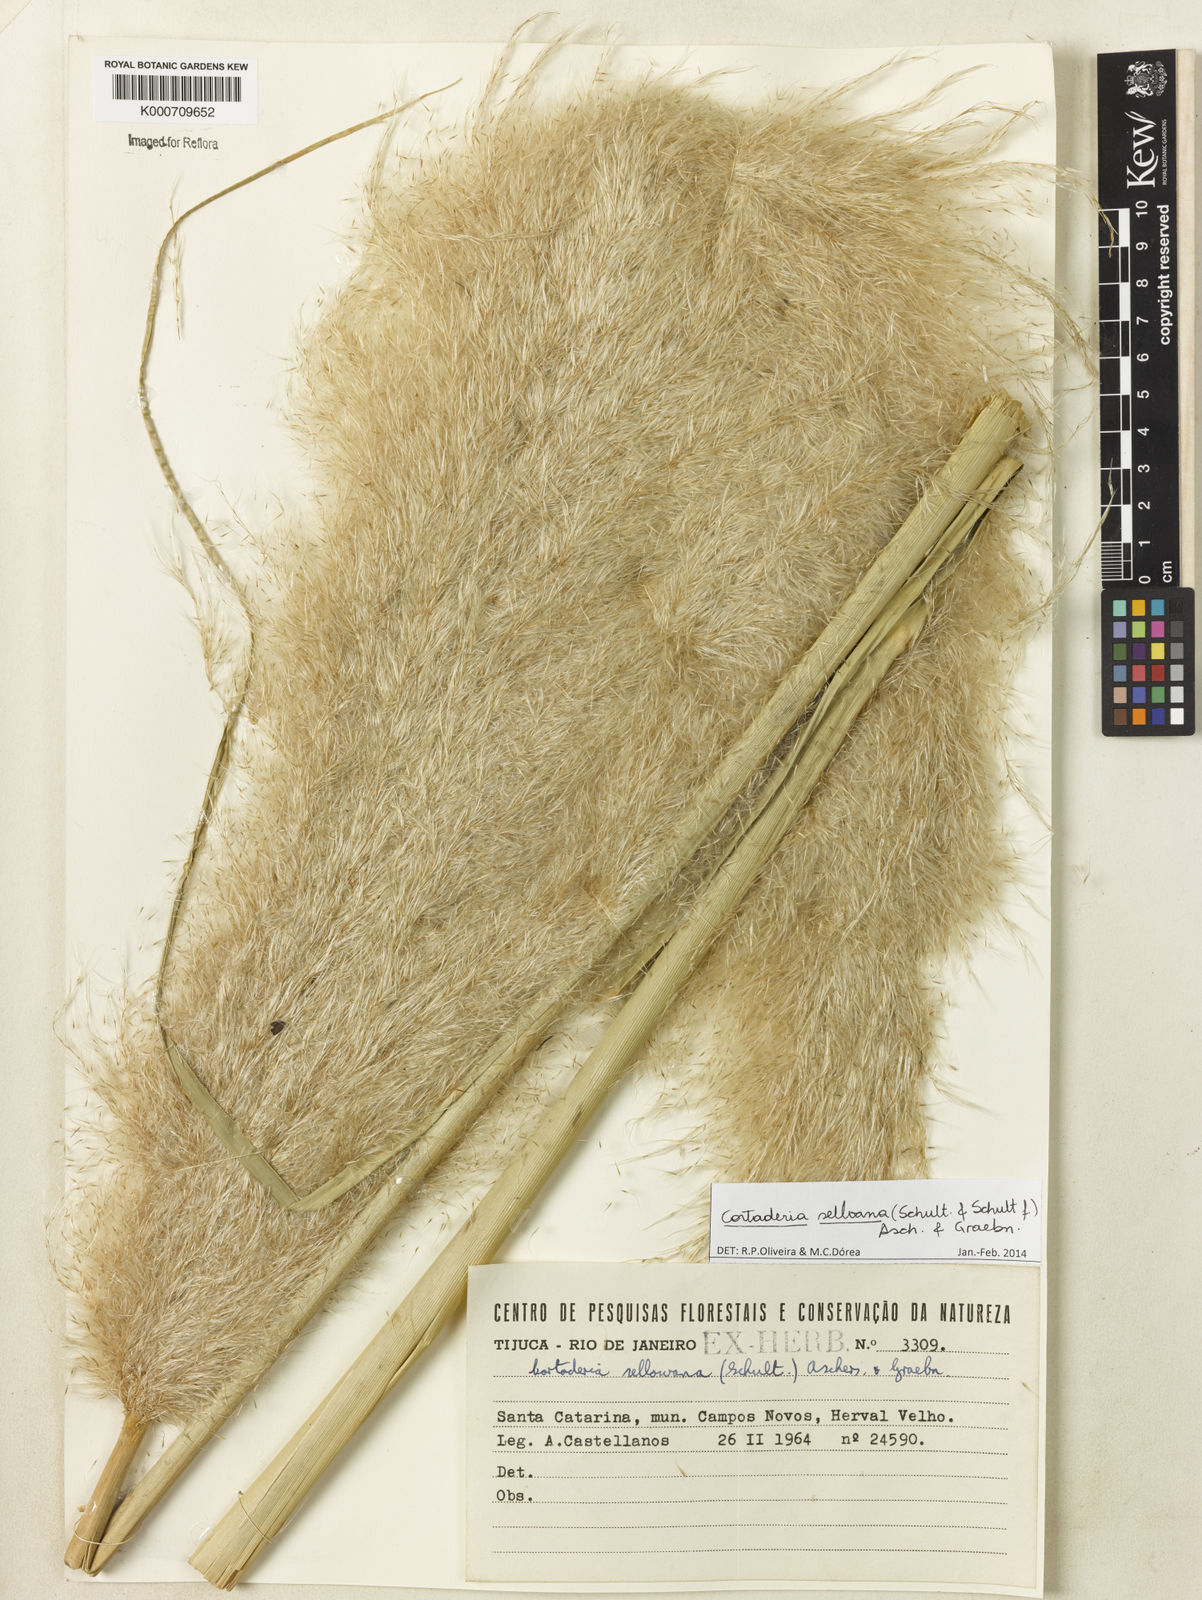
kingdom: Plantae
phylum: Tracheophyta
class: Liliopsida
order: Poales
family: Poaceae
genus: Cortaderia
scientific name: Cortaderia selloana
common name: Uruguayan pampas grass
